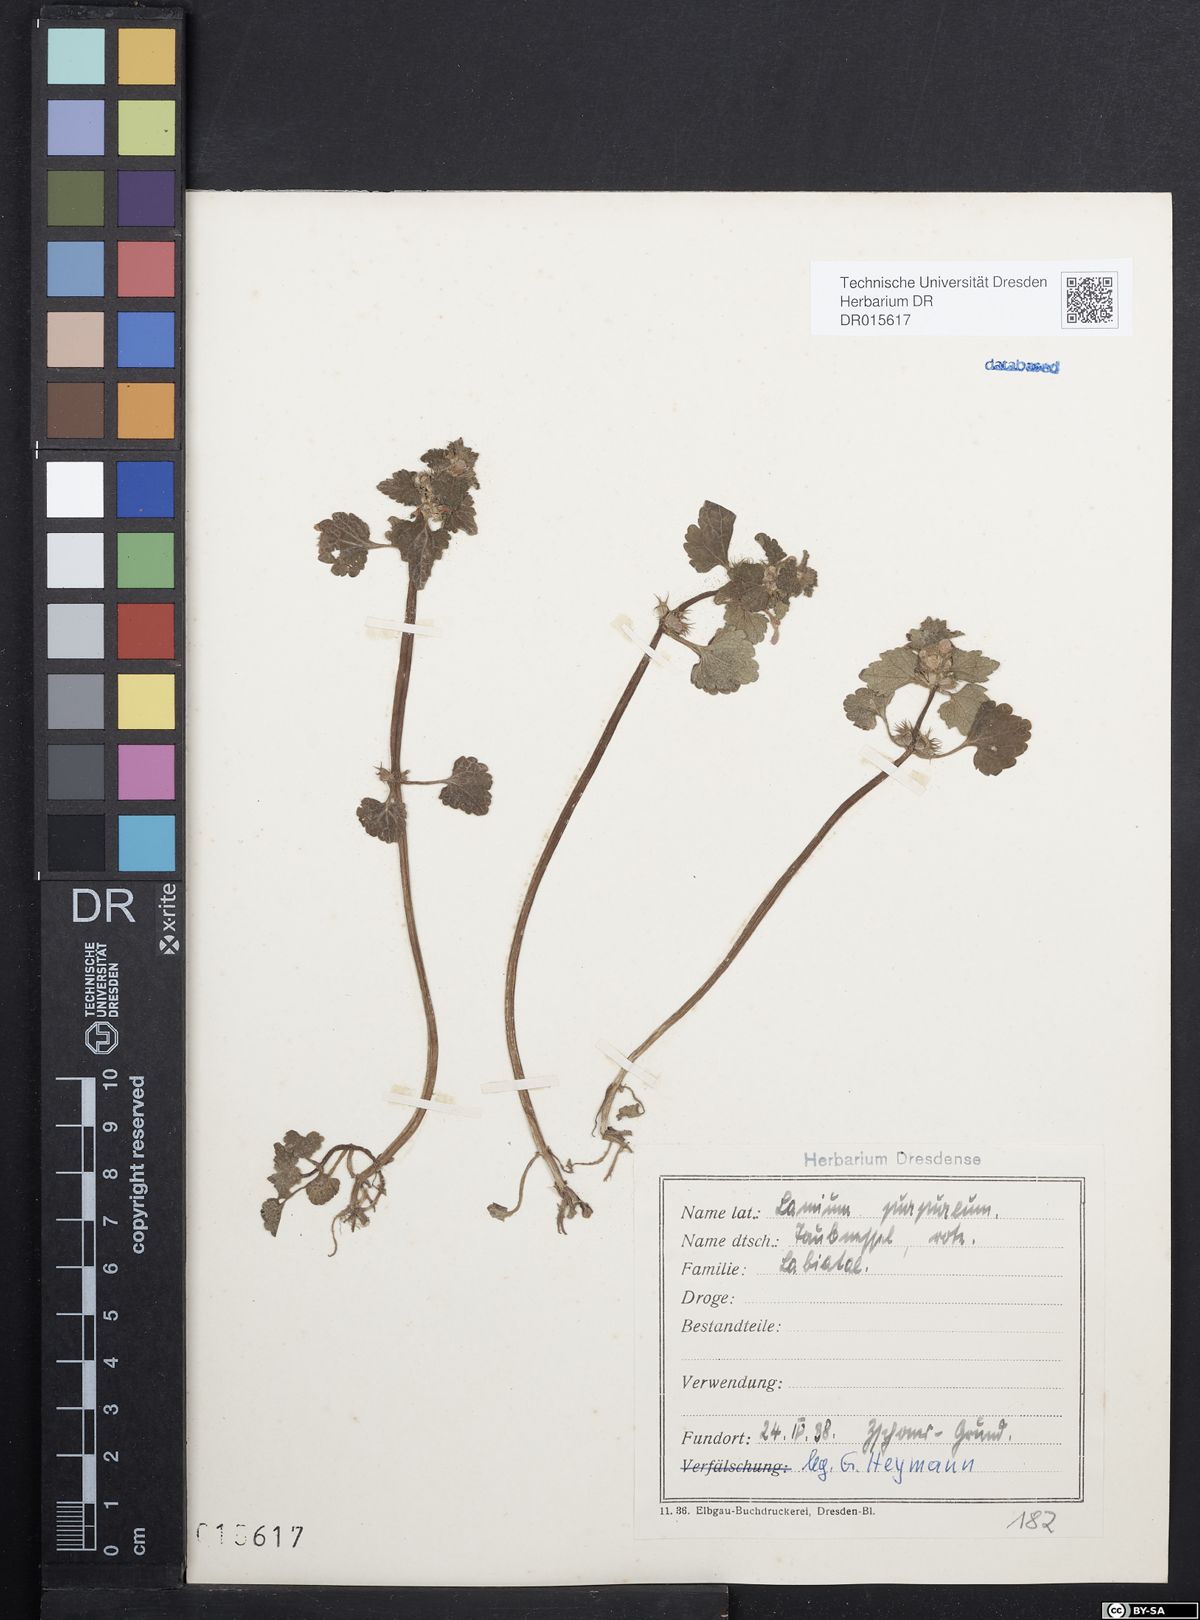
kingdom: Plantae
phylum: Tracheophyta
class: Magnoliopsida
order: Lamiales
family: Lamiaceae
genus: Lamium
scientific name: Lamium purpureum
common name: Red dead-nettle
